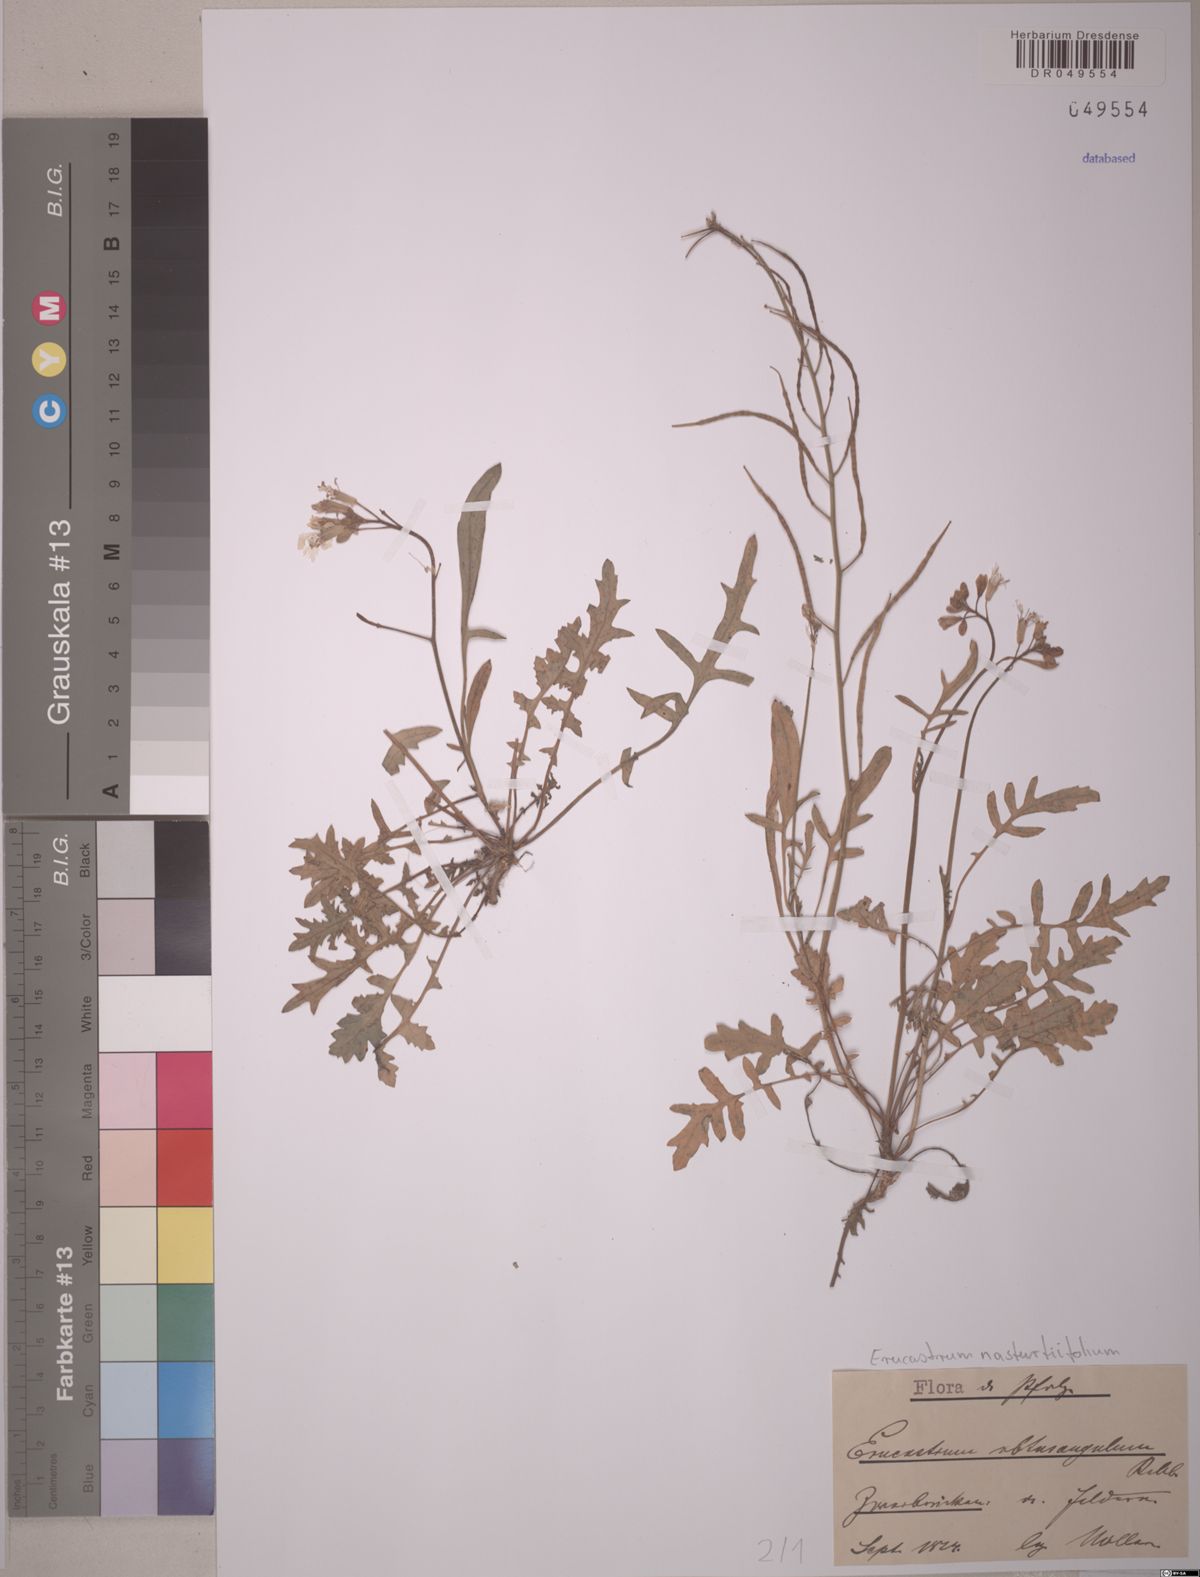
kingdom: Plantae
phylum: Tracheophyta
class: Magnoliopsida
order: Brassicales
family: Brassicaceae
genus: Erucastrum
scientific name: Erucastrum nasturtiifolium
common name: Watercress-leaf rocket
